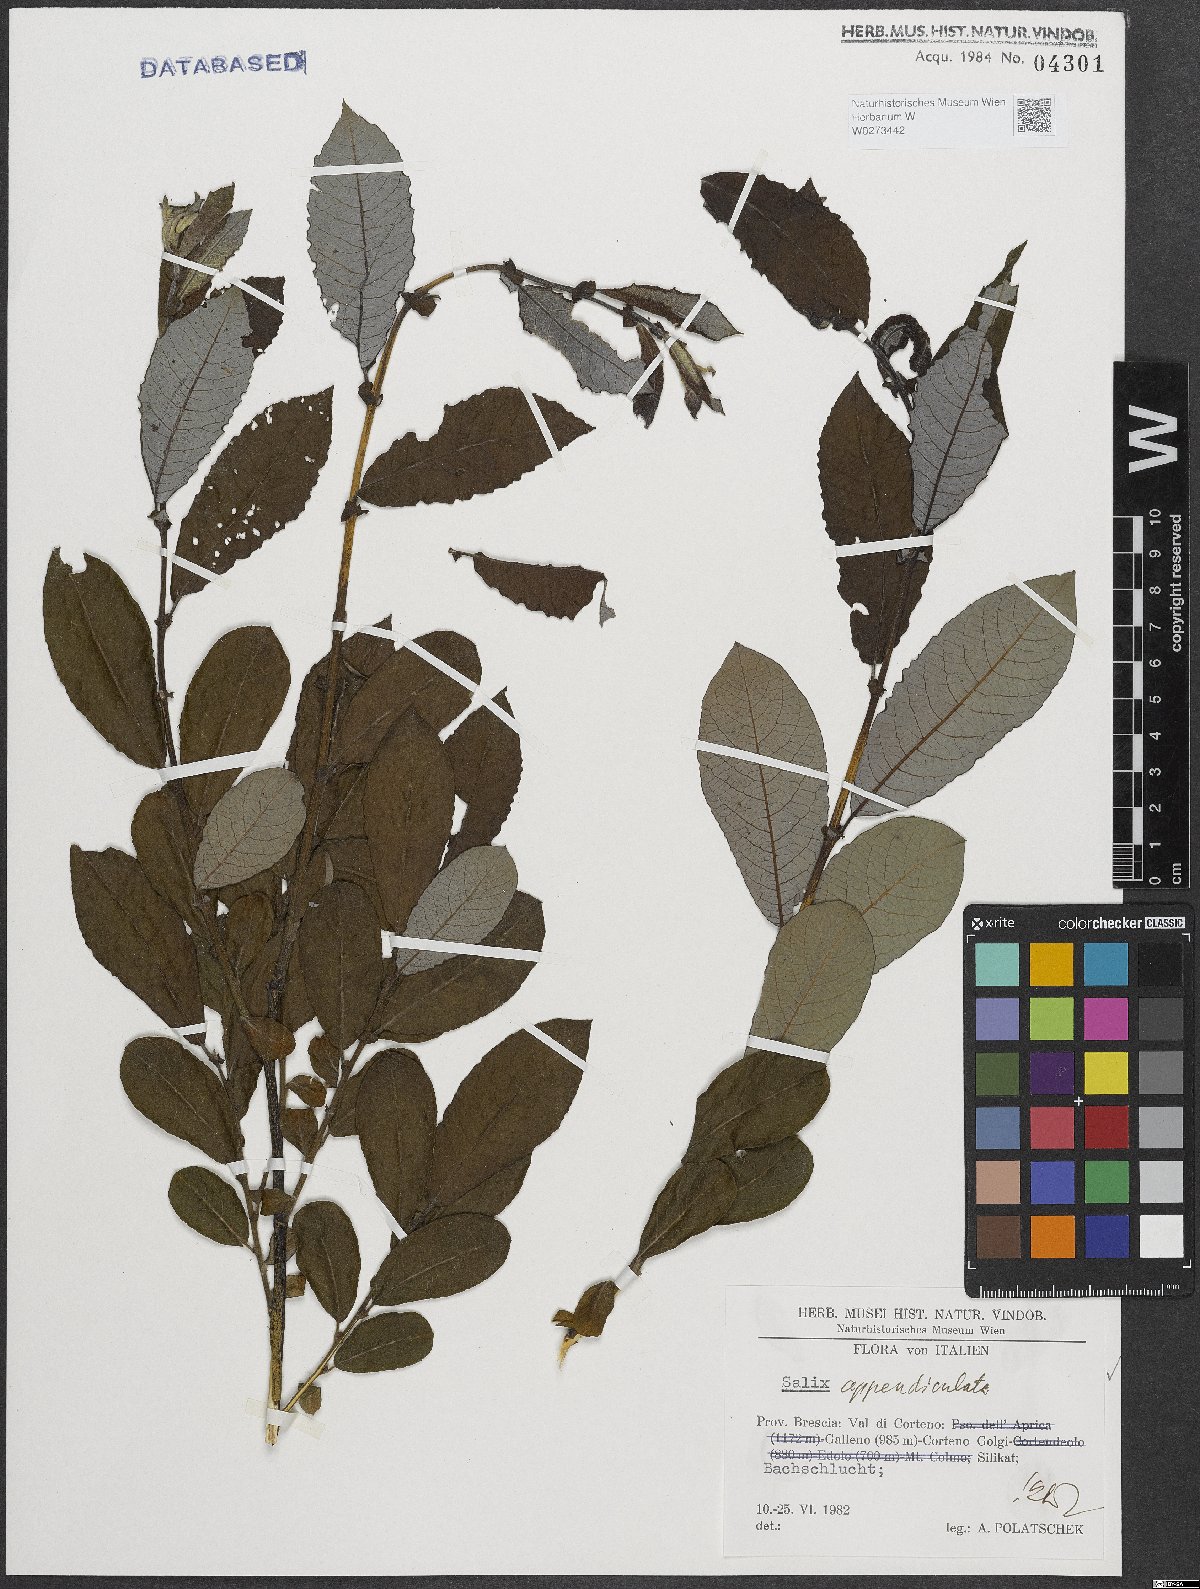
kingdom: Plantae
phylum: Tracheophyta
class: Magnoliopsida
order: Malpighiales
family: Salicaceae
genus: Salix
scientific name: Salix appendiculata
